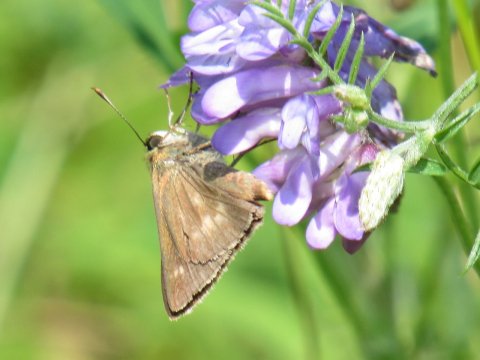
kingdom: Animalia
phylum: Arthropoda
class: Insecta
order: Lepidoptera
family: Hesperiidae
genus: Polites
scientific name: Polites egeremet
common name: Northern Broken-Dash
